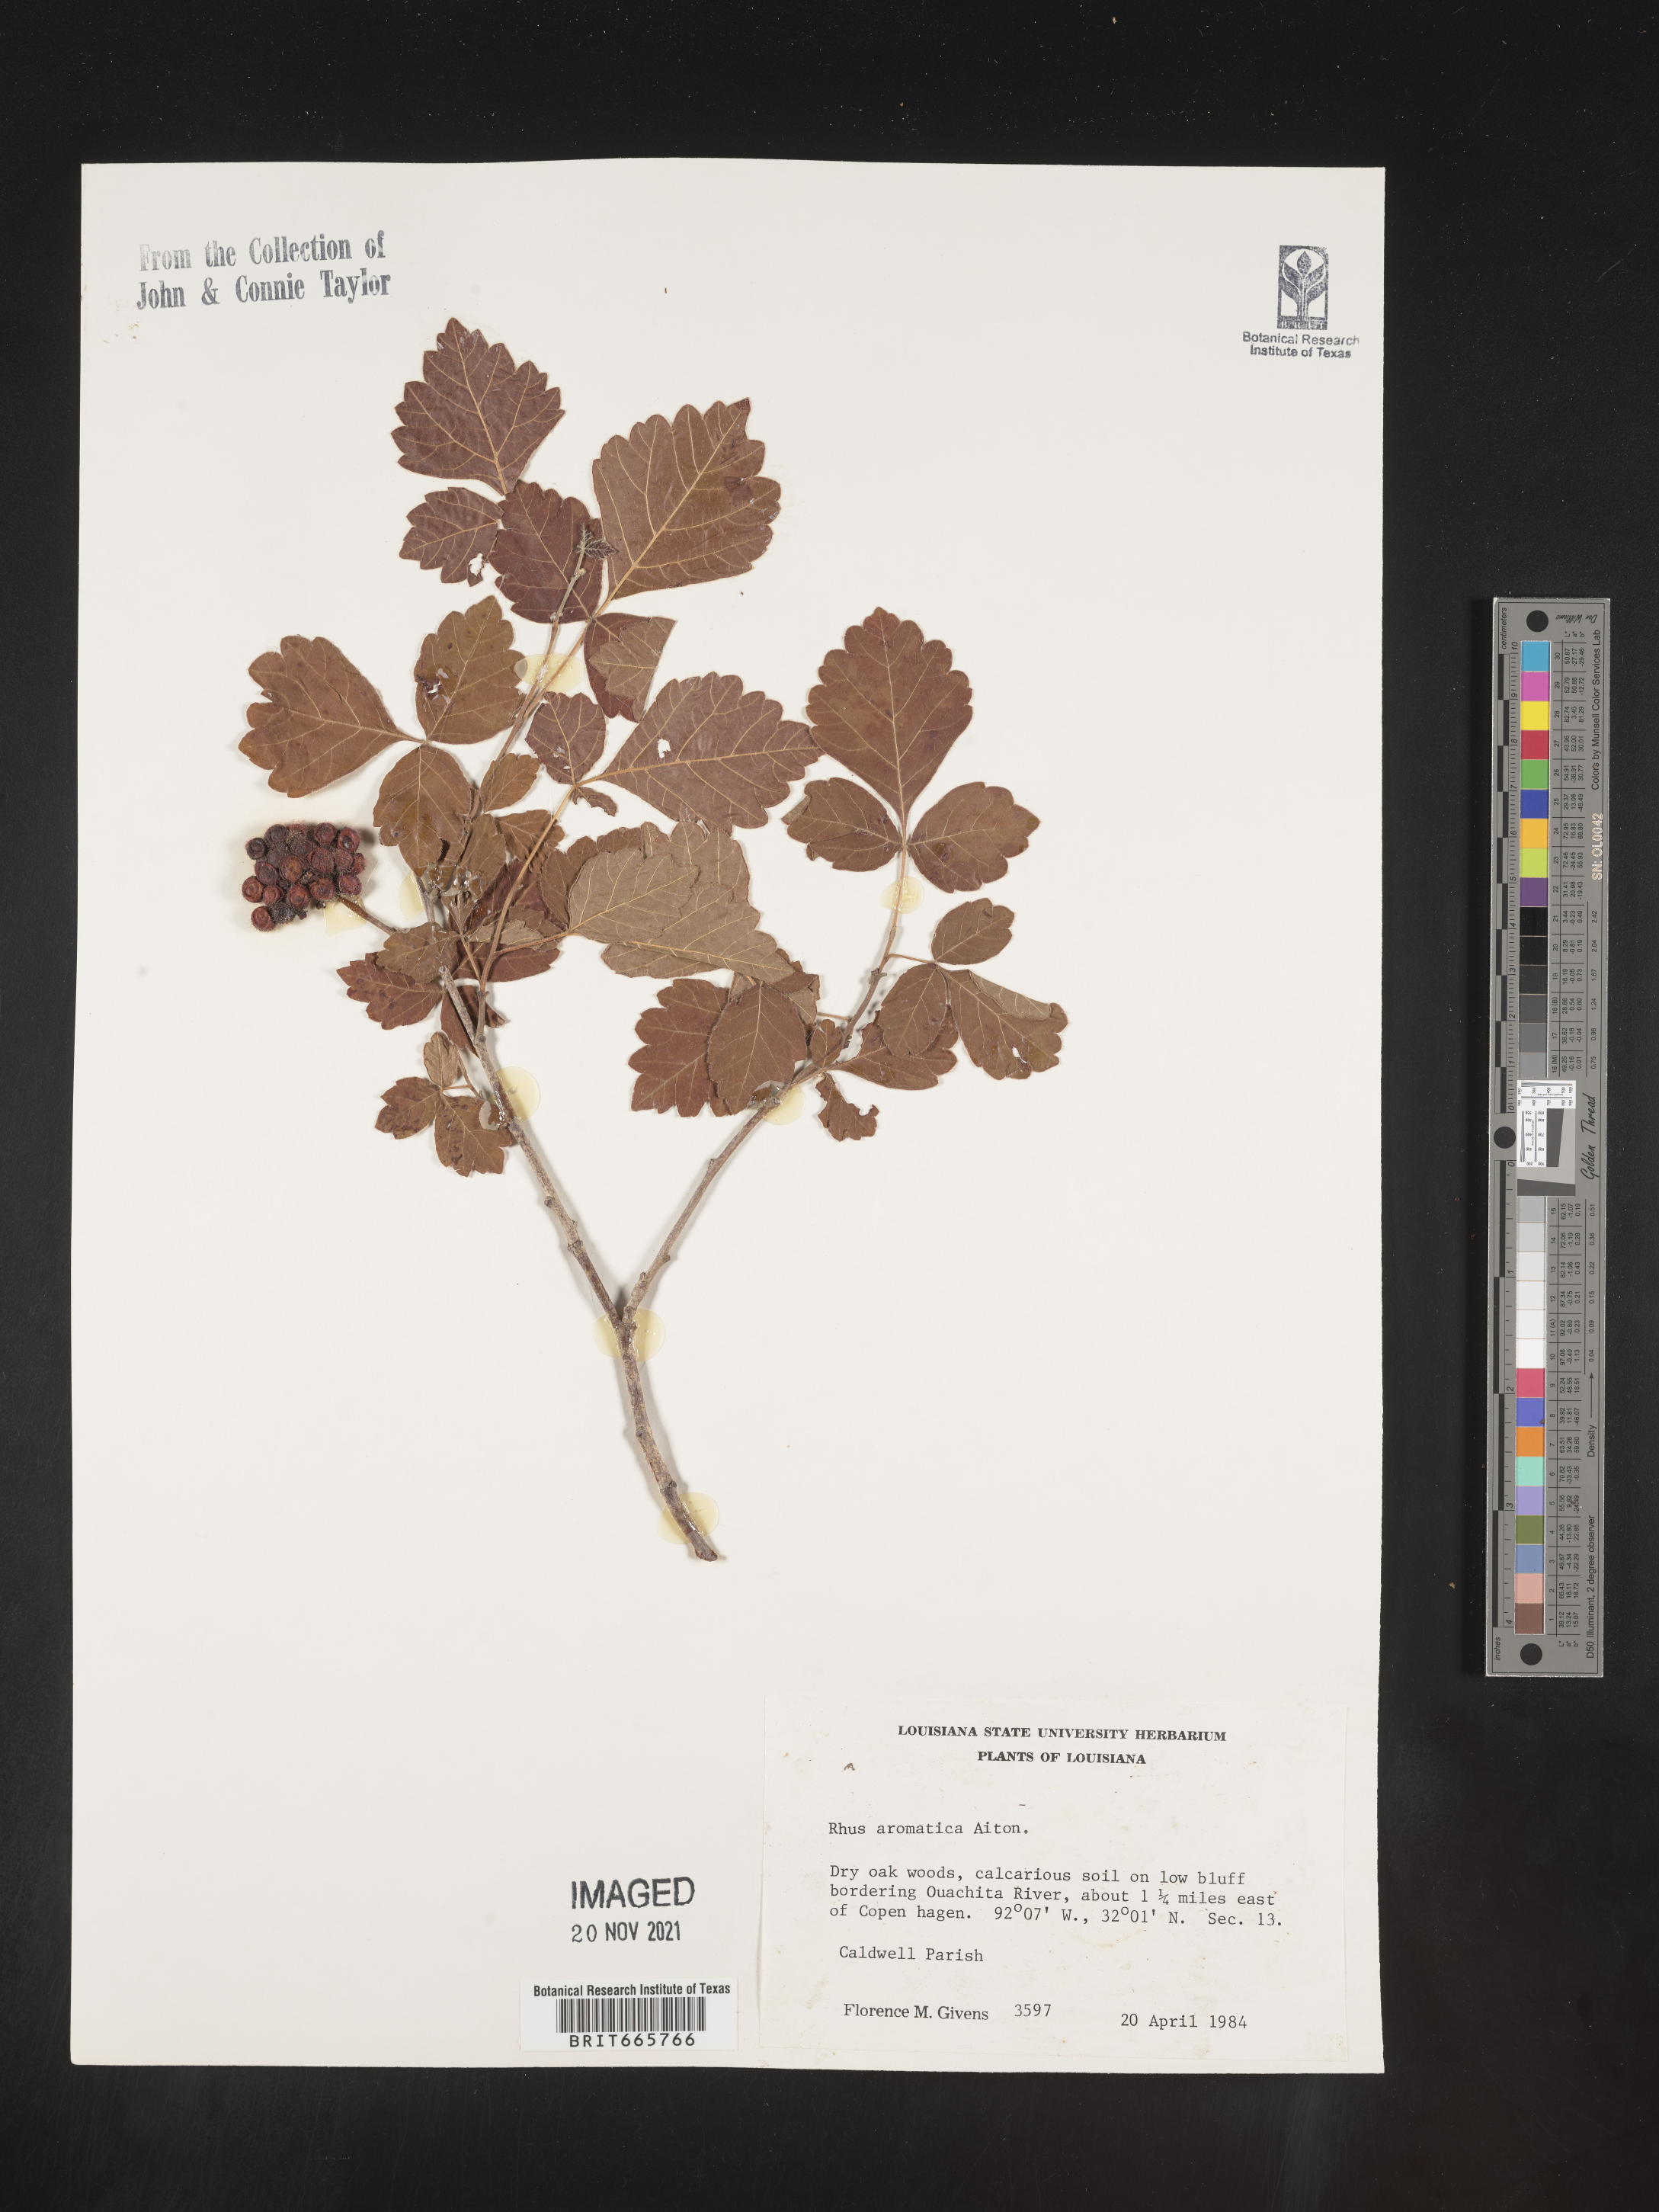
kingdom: Plantae
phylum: Tracheophyta
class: Magnoliopsida
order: Sapindales
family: Anacardiaceae
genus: Rhus
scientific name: Rhus aromatica
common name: Aromatic sumac
